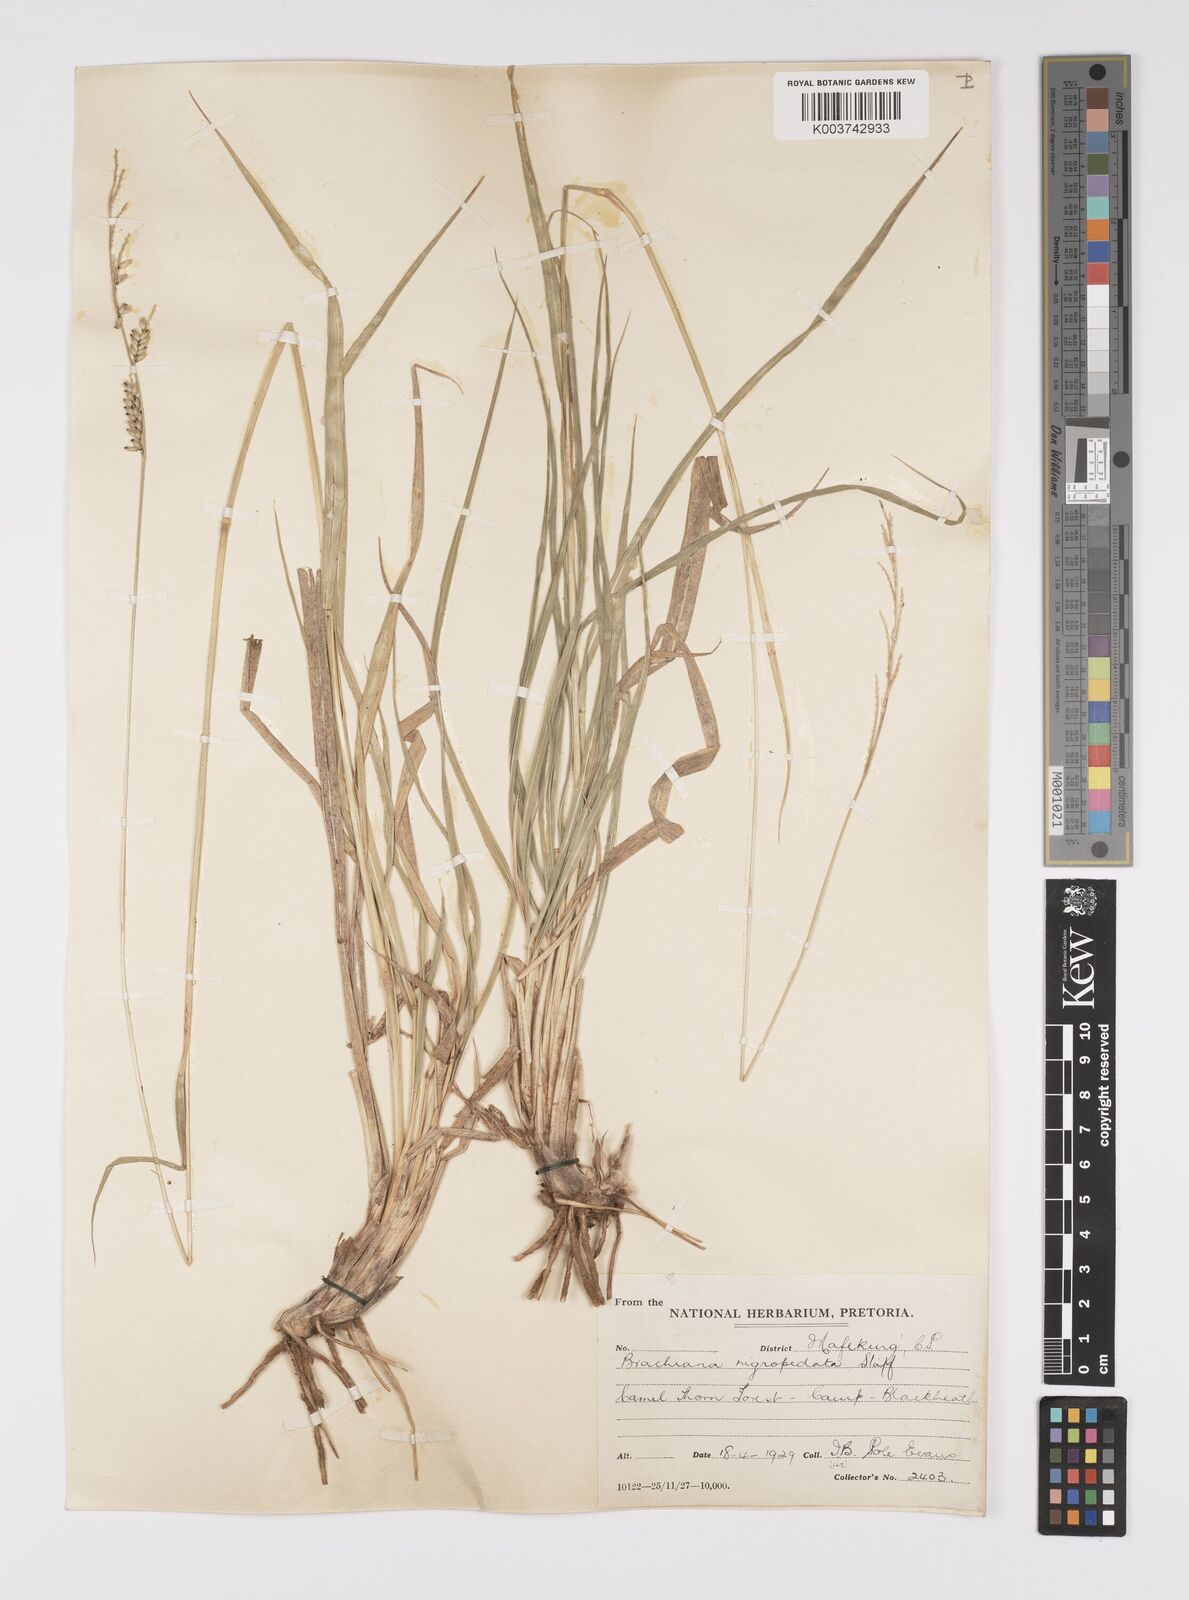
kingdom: Plantae
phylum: Tracheophyta
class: Liliopsida
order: Poales
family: Poaceae
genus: Urochloa
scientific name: Urochloa nigropedata
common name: Spotted signal grass
